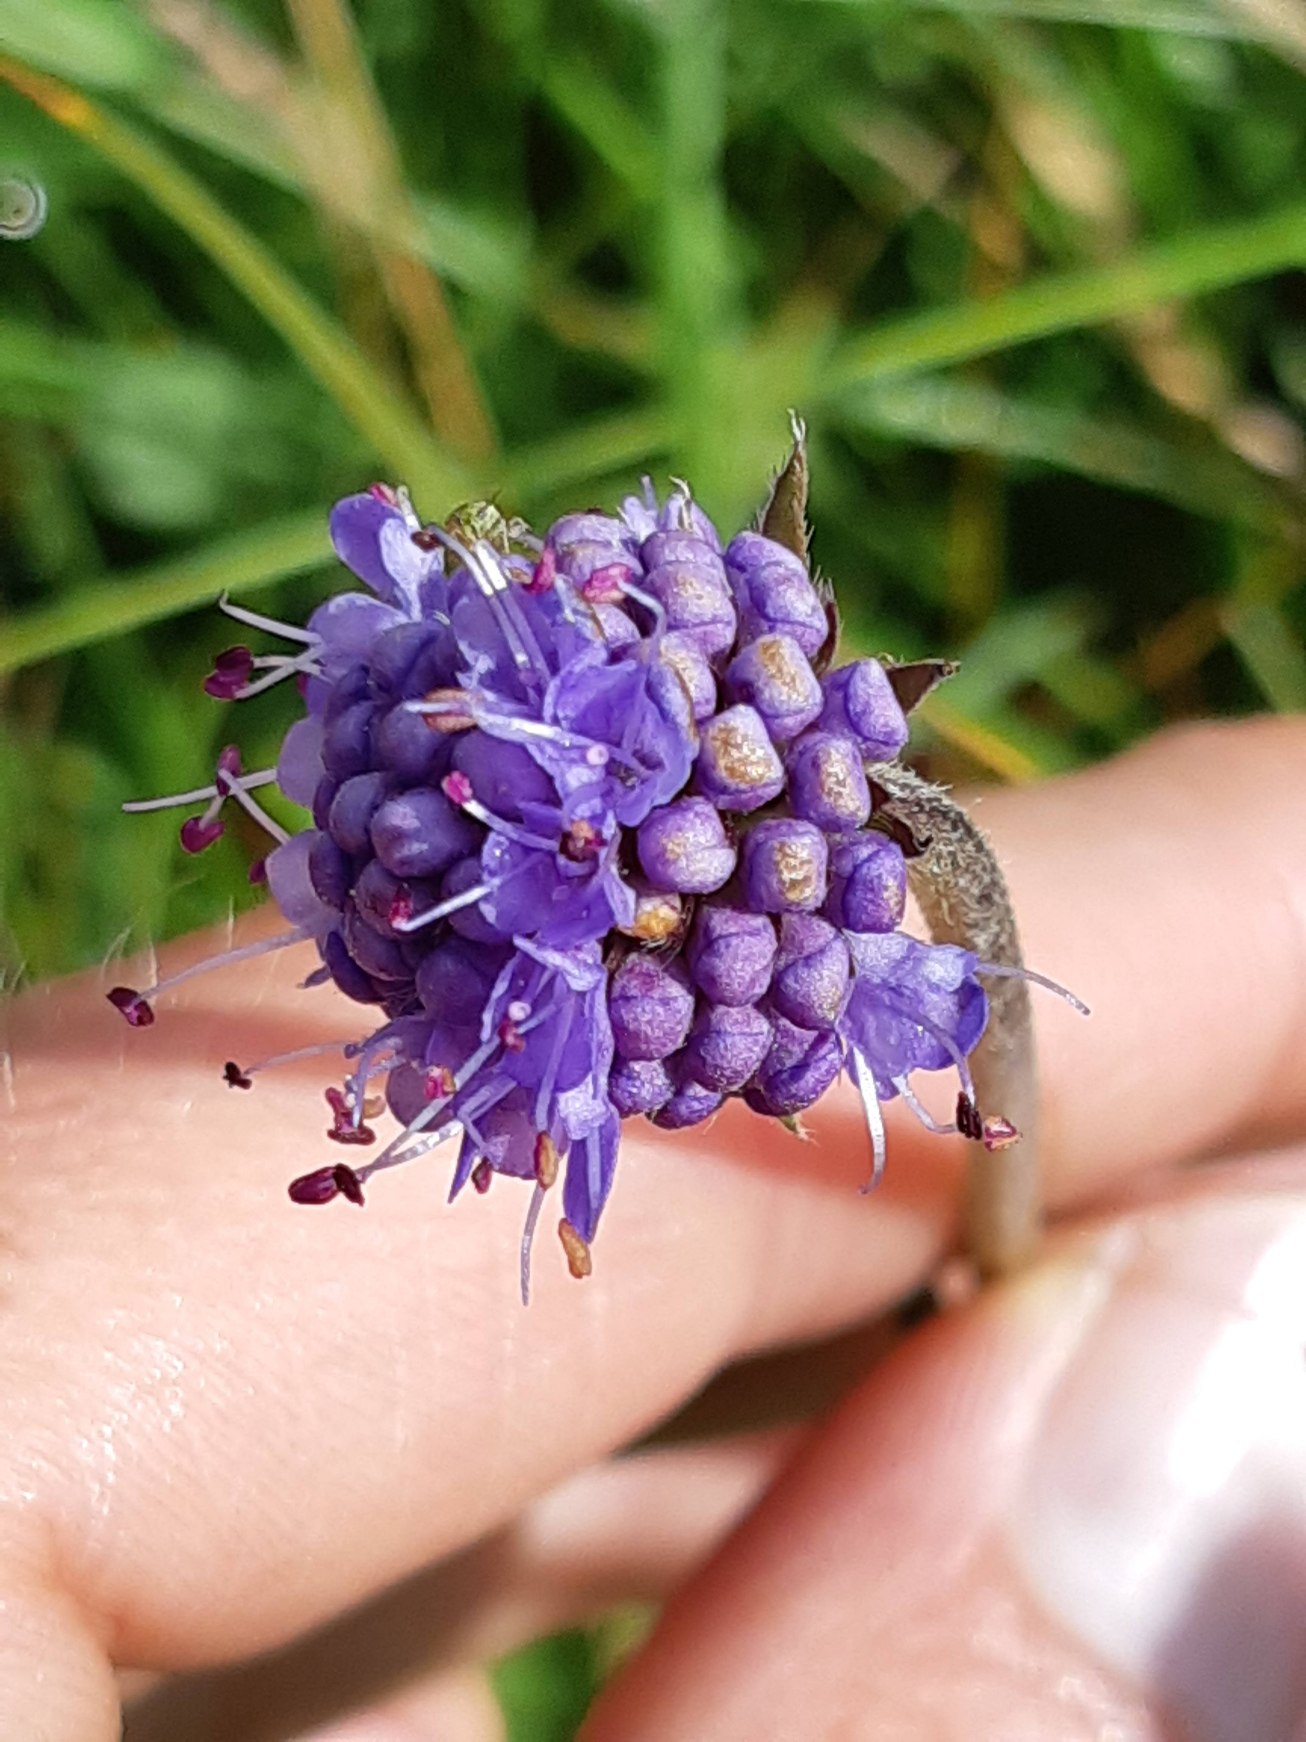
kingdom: Plantae
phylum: Tracheophyta
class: Magnoliopsida
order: Dipsacales
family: Caprifoliaceae
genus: Succisa
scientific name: Succisa pratensis
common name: Djævelsbid
